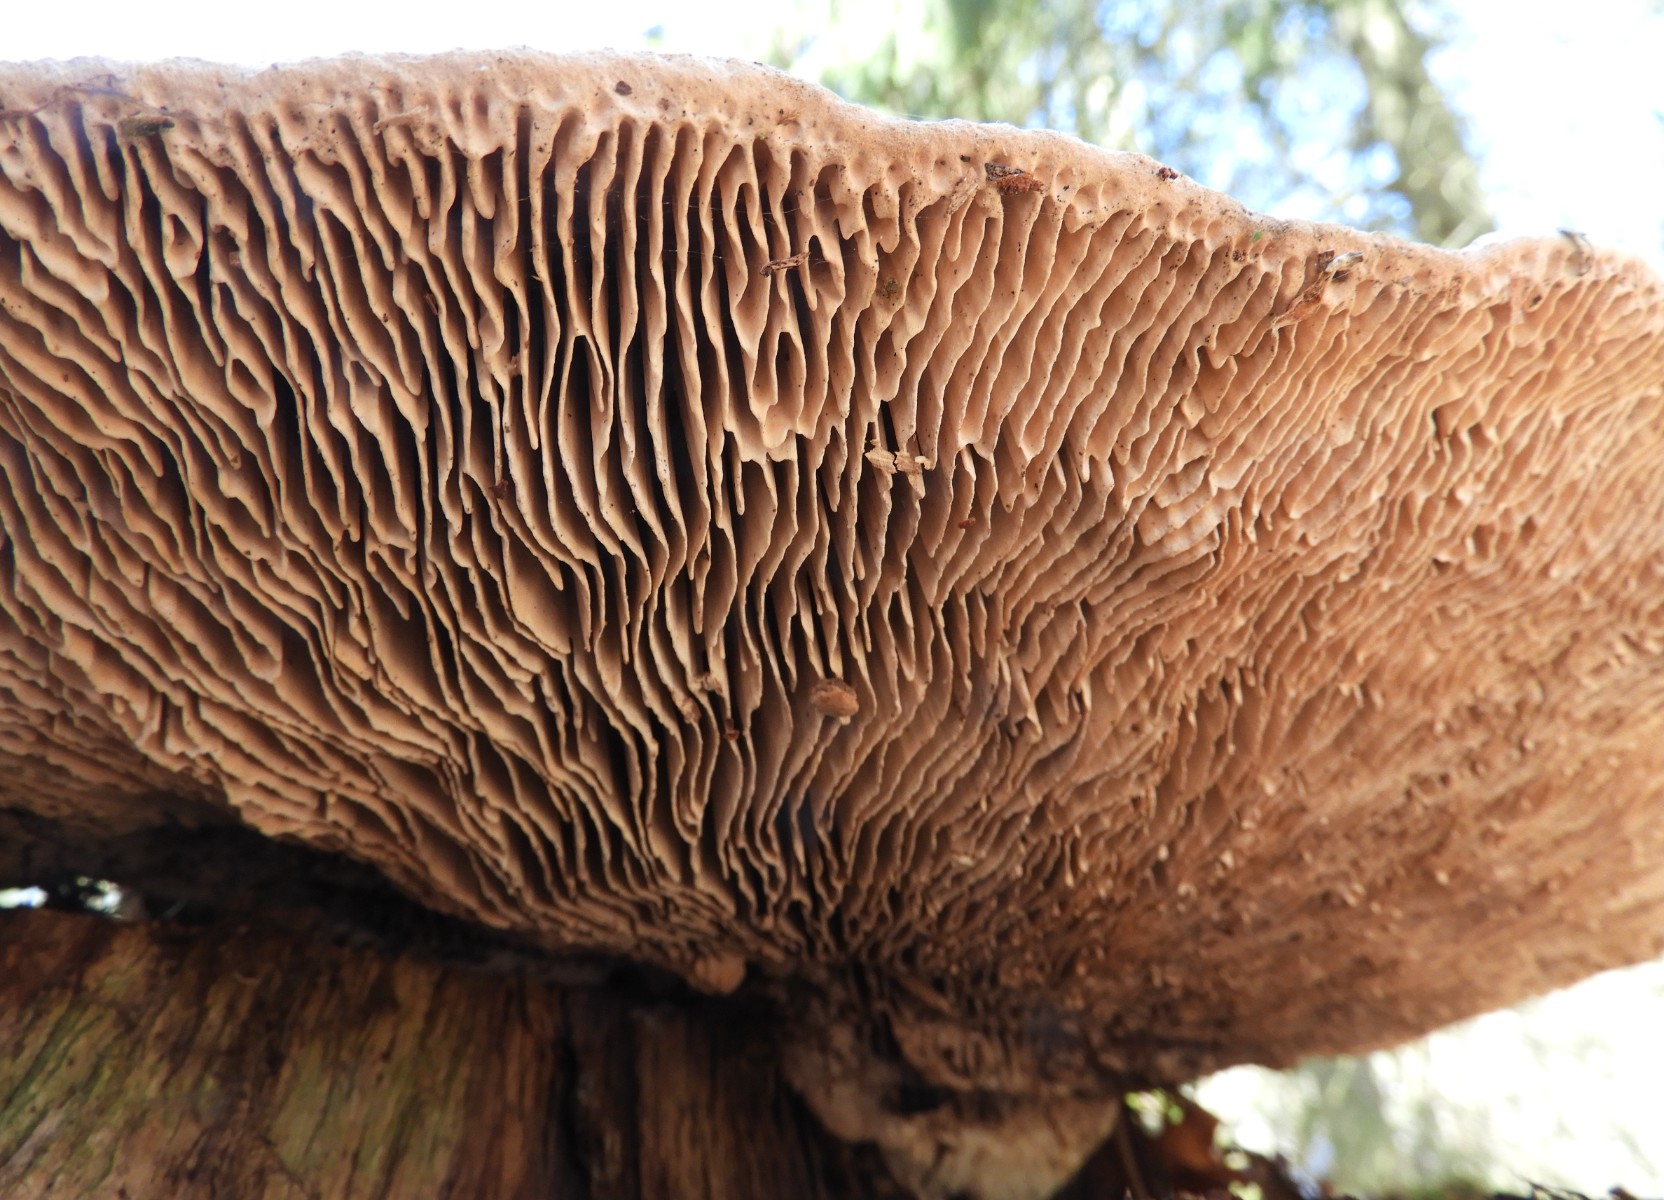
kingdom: Fungi
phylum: Basidiomycota
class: Agaricomycetes
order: Polyporales
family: Fomitopsidaceae
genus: Daedalea
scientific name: Daedalea quercina
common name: ege-labyrintsvamp
